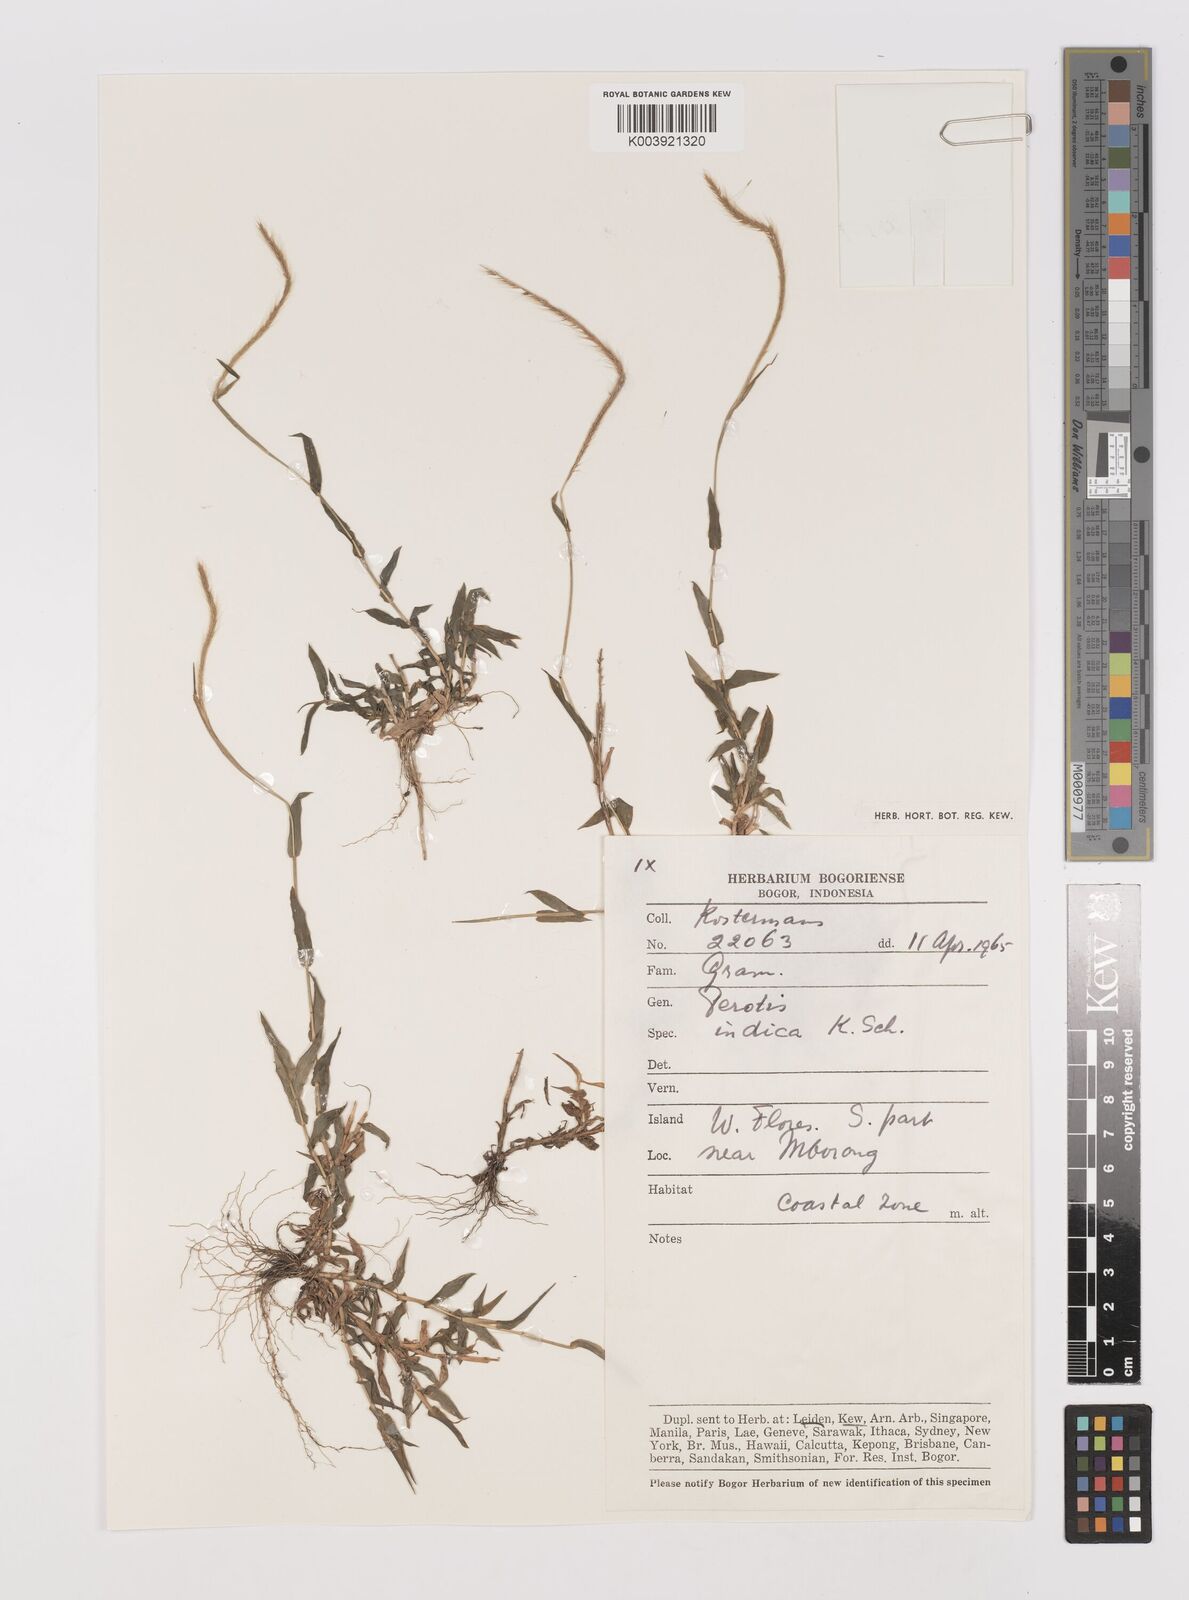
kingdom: Plantae
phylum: Tracheophyta
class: Liliopsida
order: Poales
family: Poaceae
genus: Perotis
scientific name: Perotis indica
